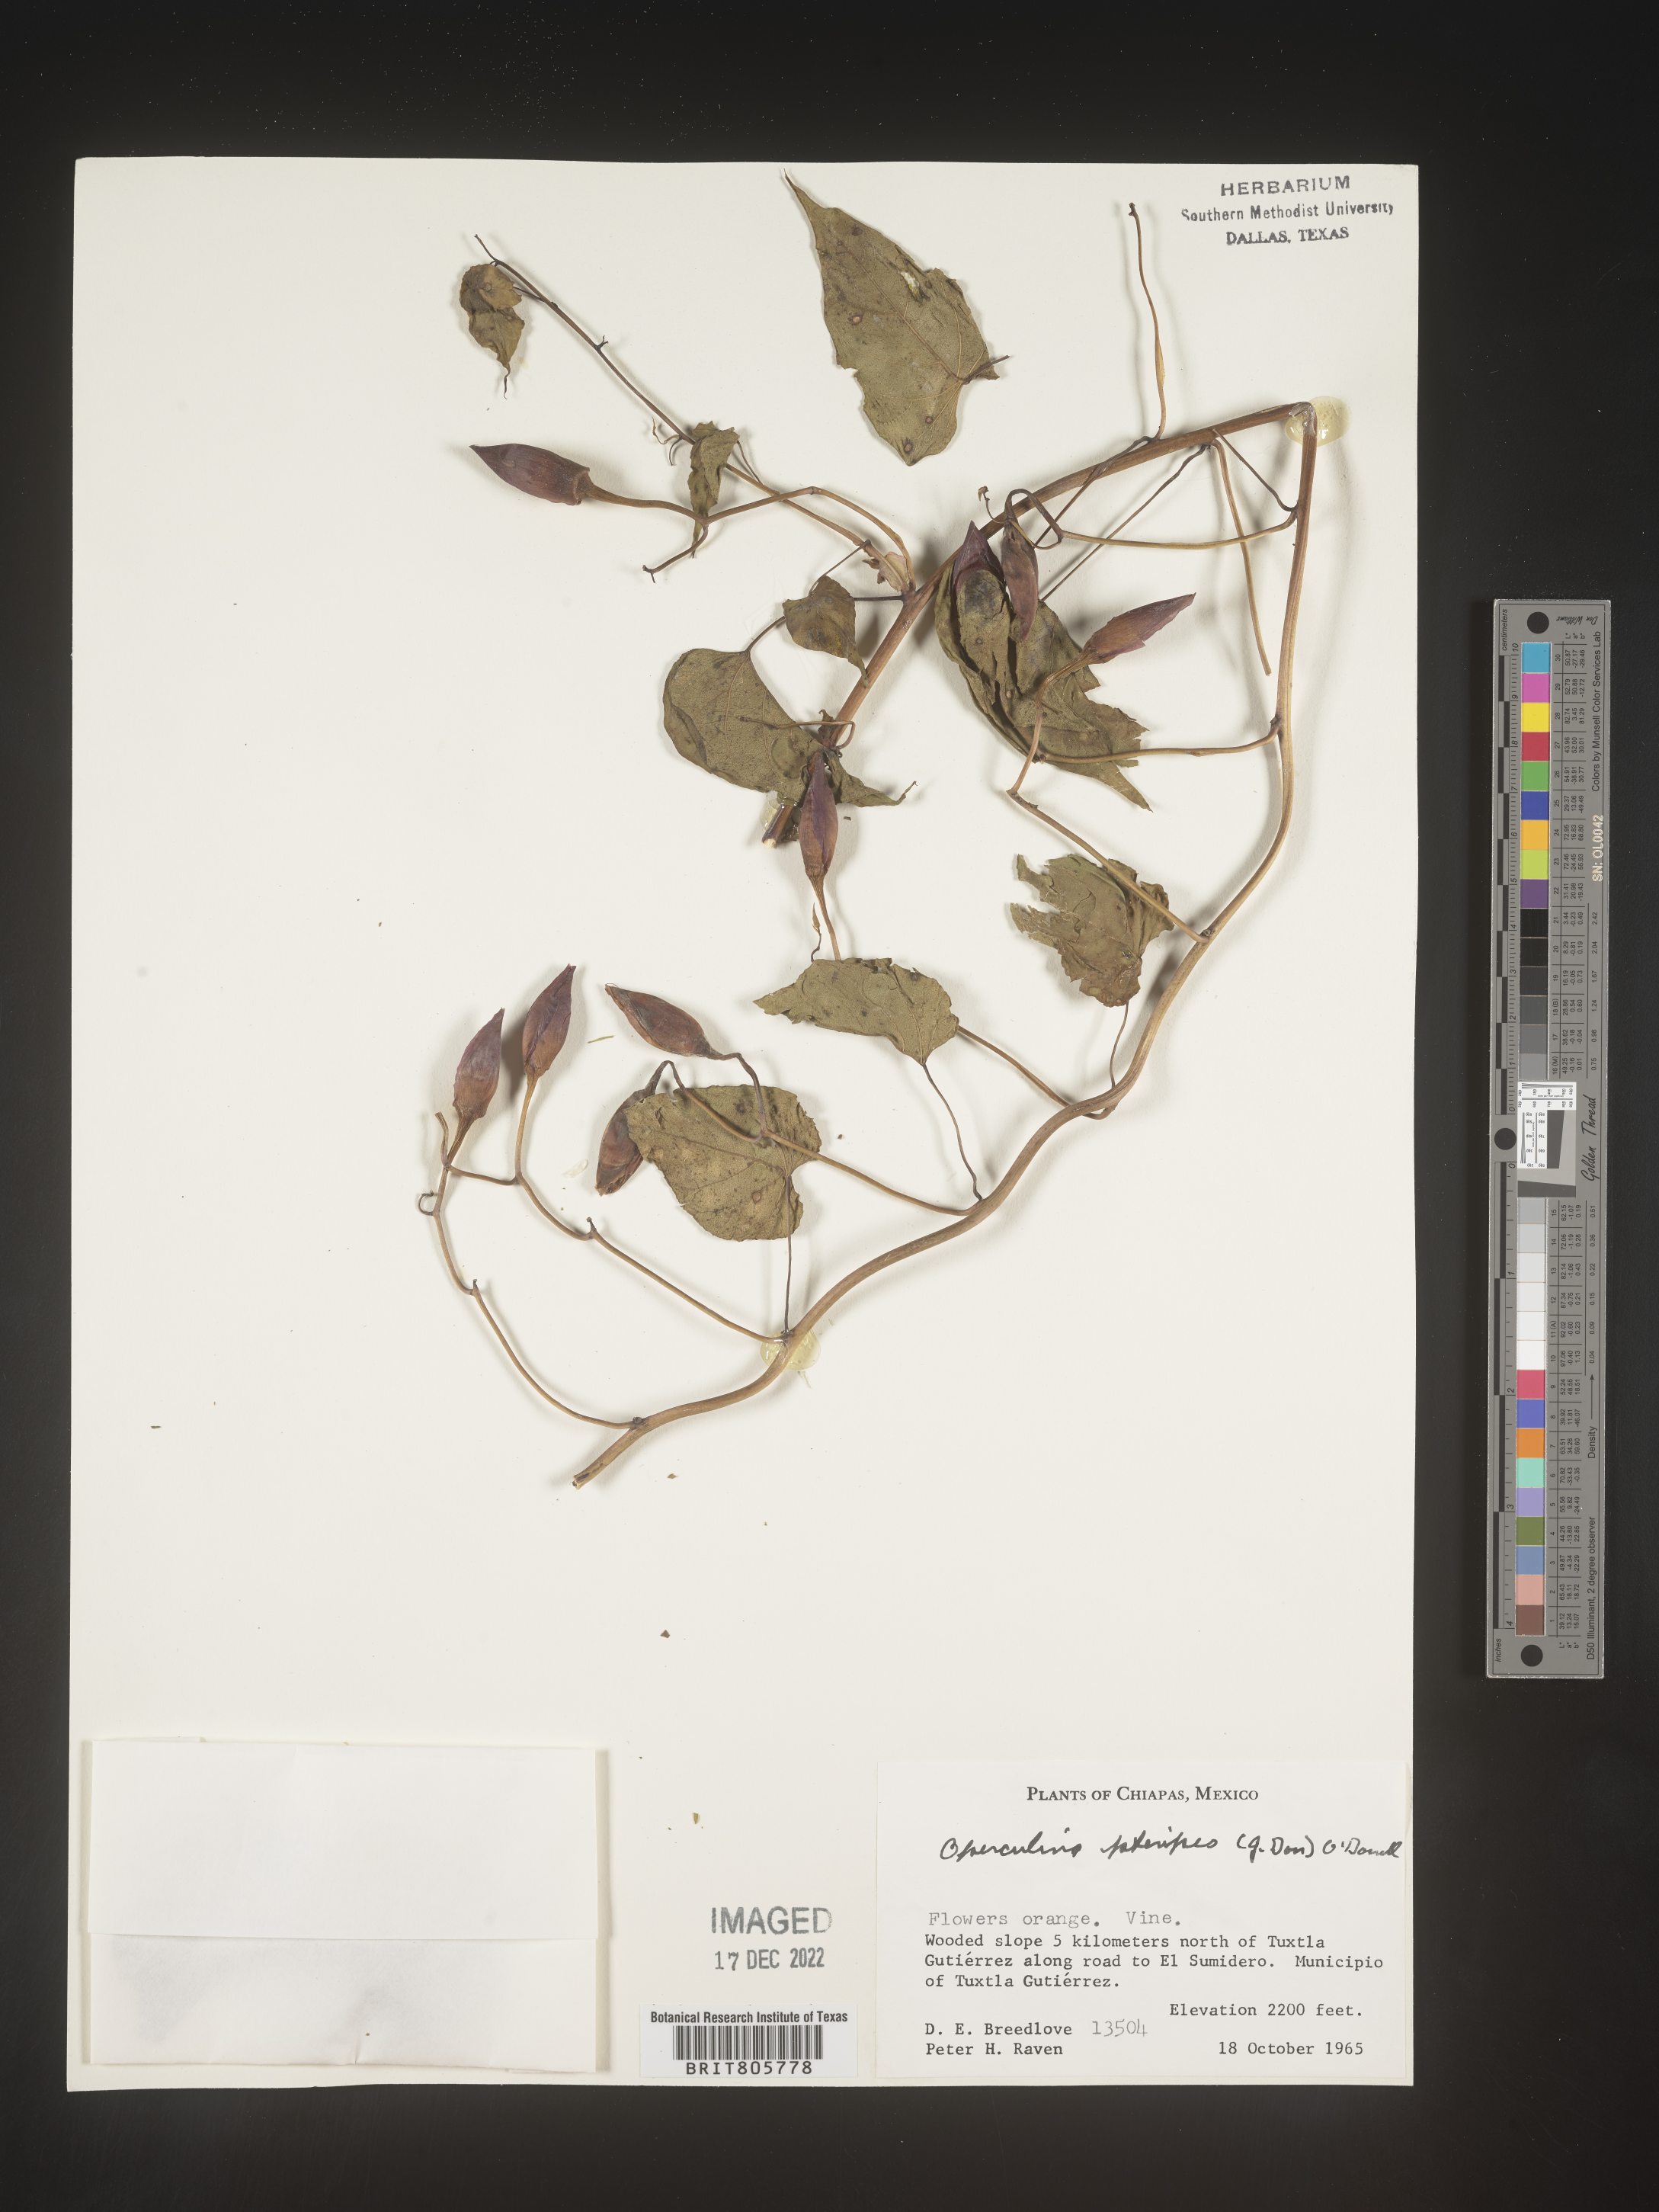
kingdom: Plantae
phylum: Tracheophyta
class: Magnoliopsida
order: Solanales
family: Convolvulaceae
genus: Operculina
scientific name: Operculina
